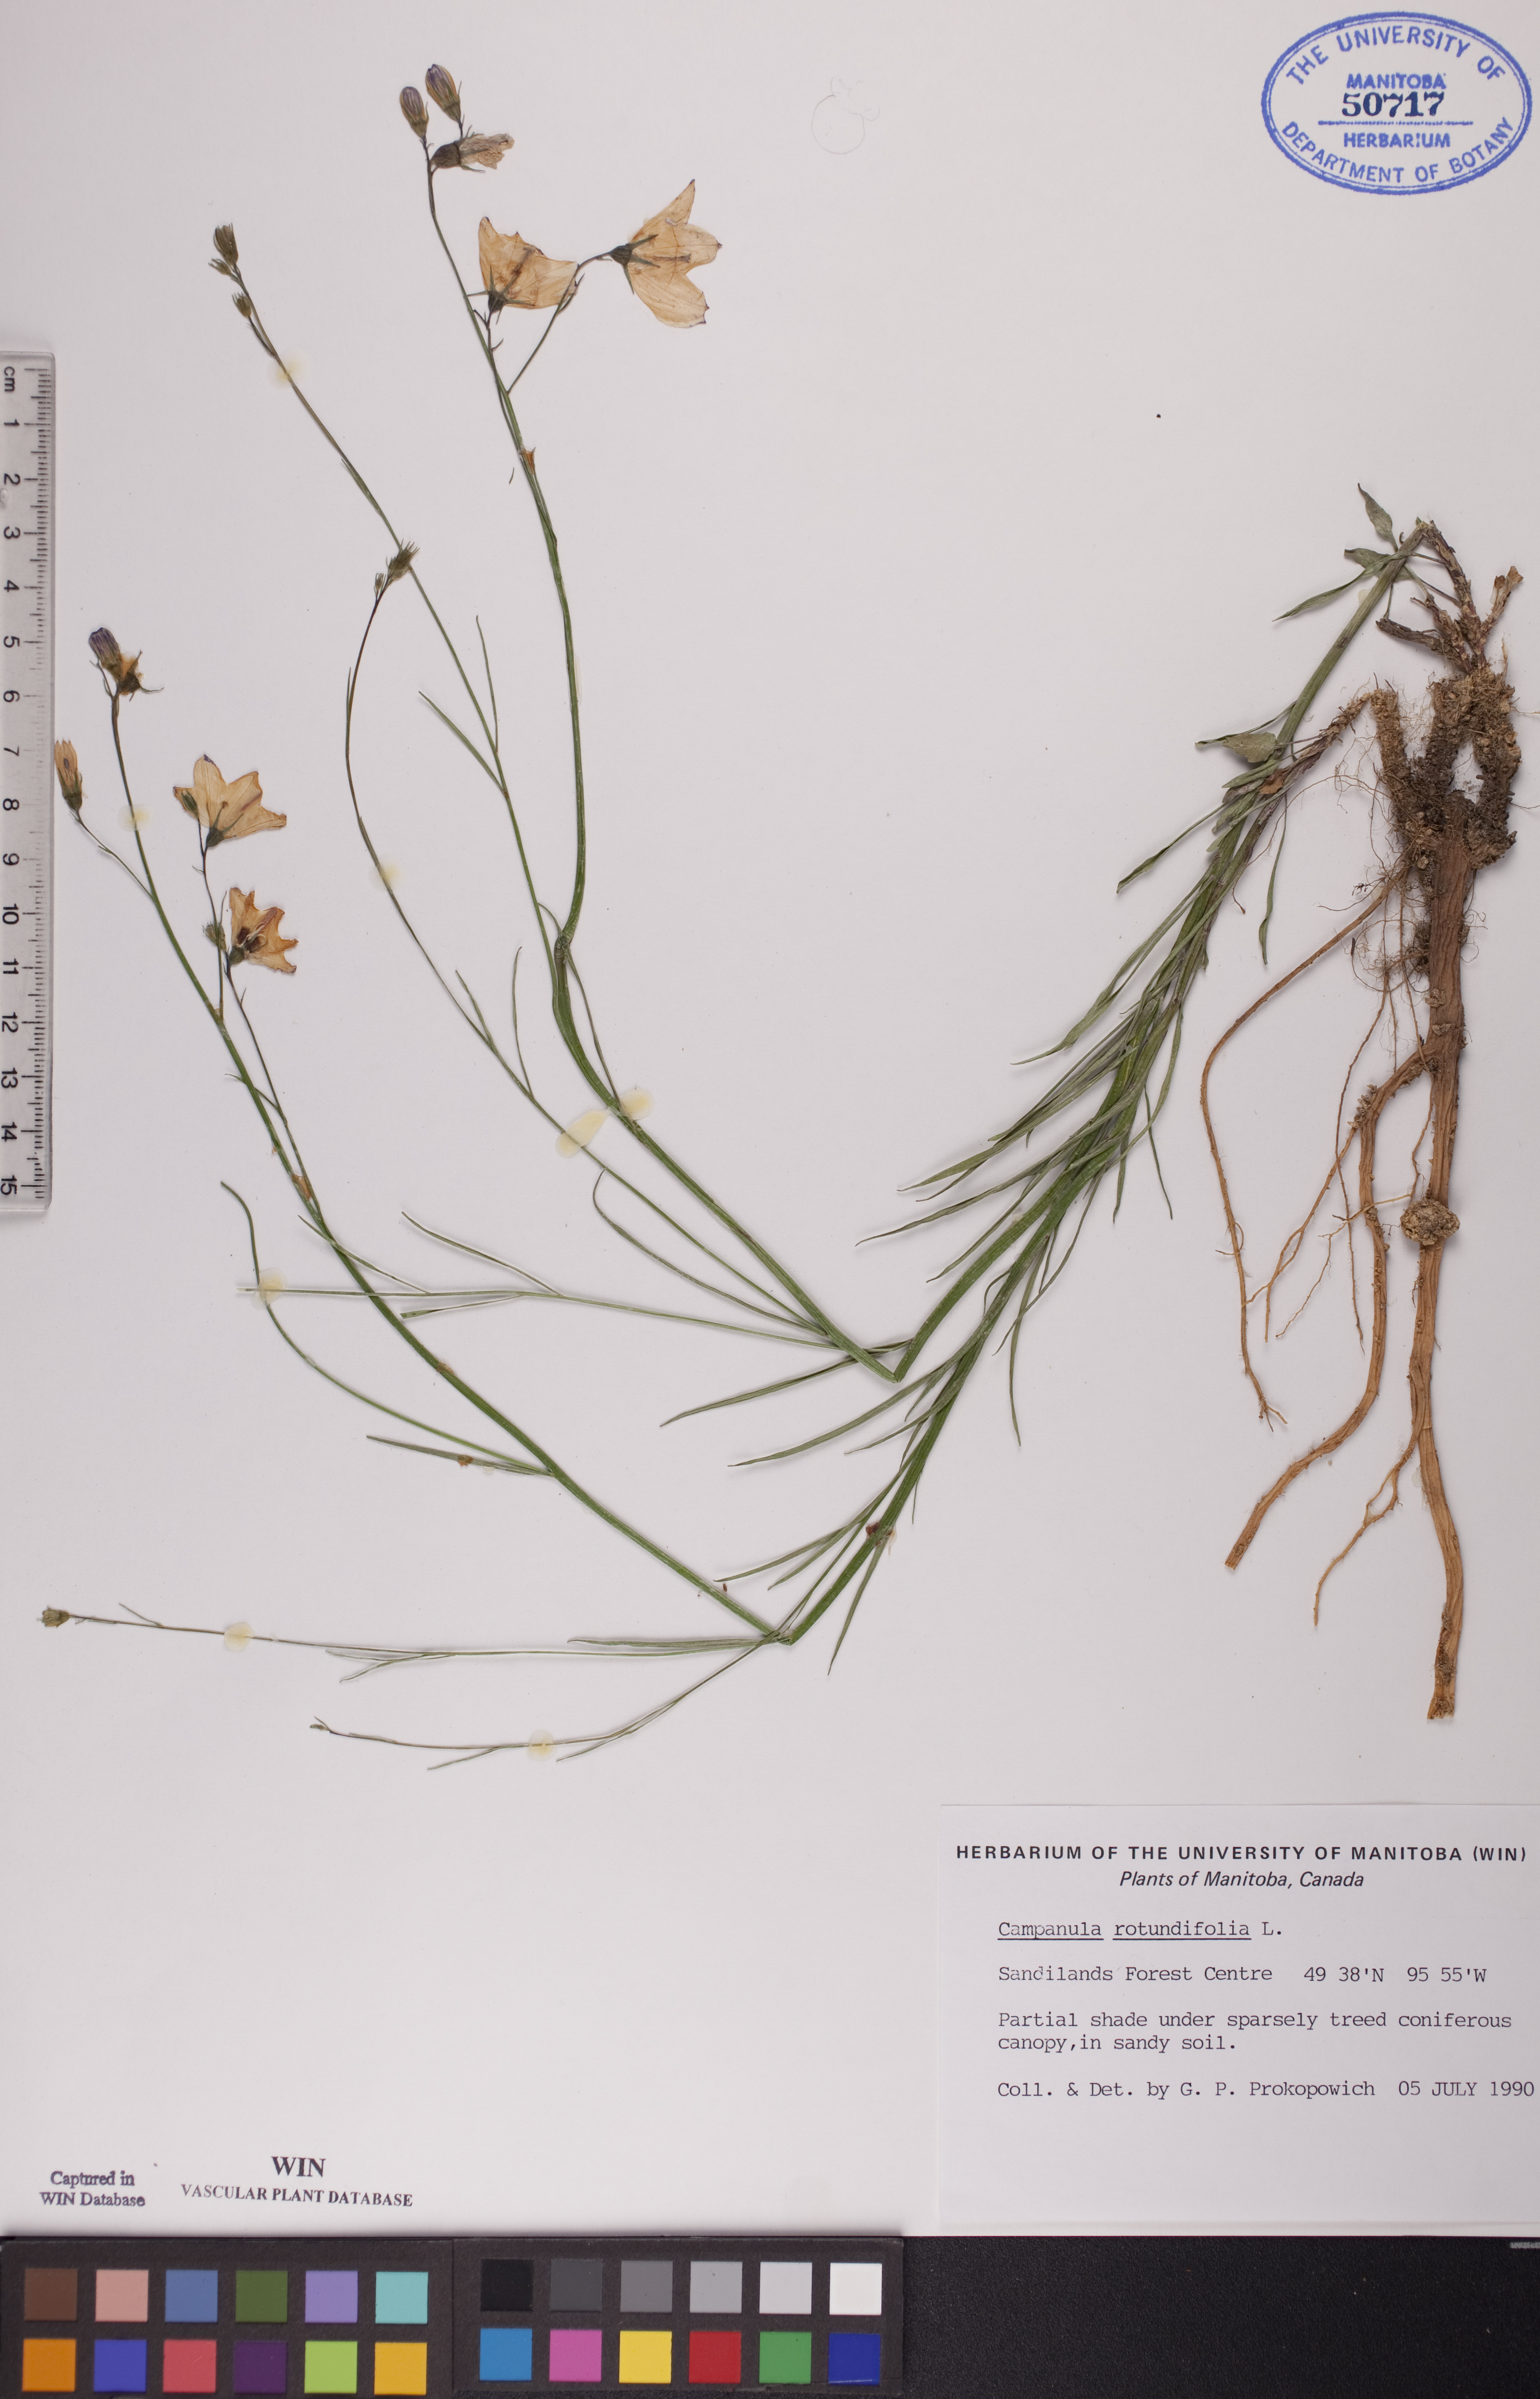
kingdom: Plantae
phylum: Tracheophyta
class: Magnoliopsida
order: Asterales
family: Campanulaceae
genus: Campanula
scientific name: Campanula rotundifolia
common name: Harebell
